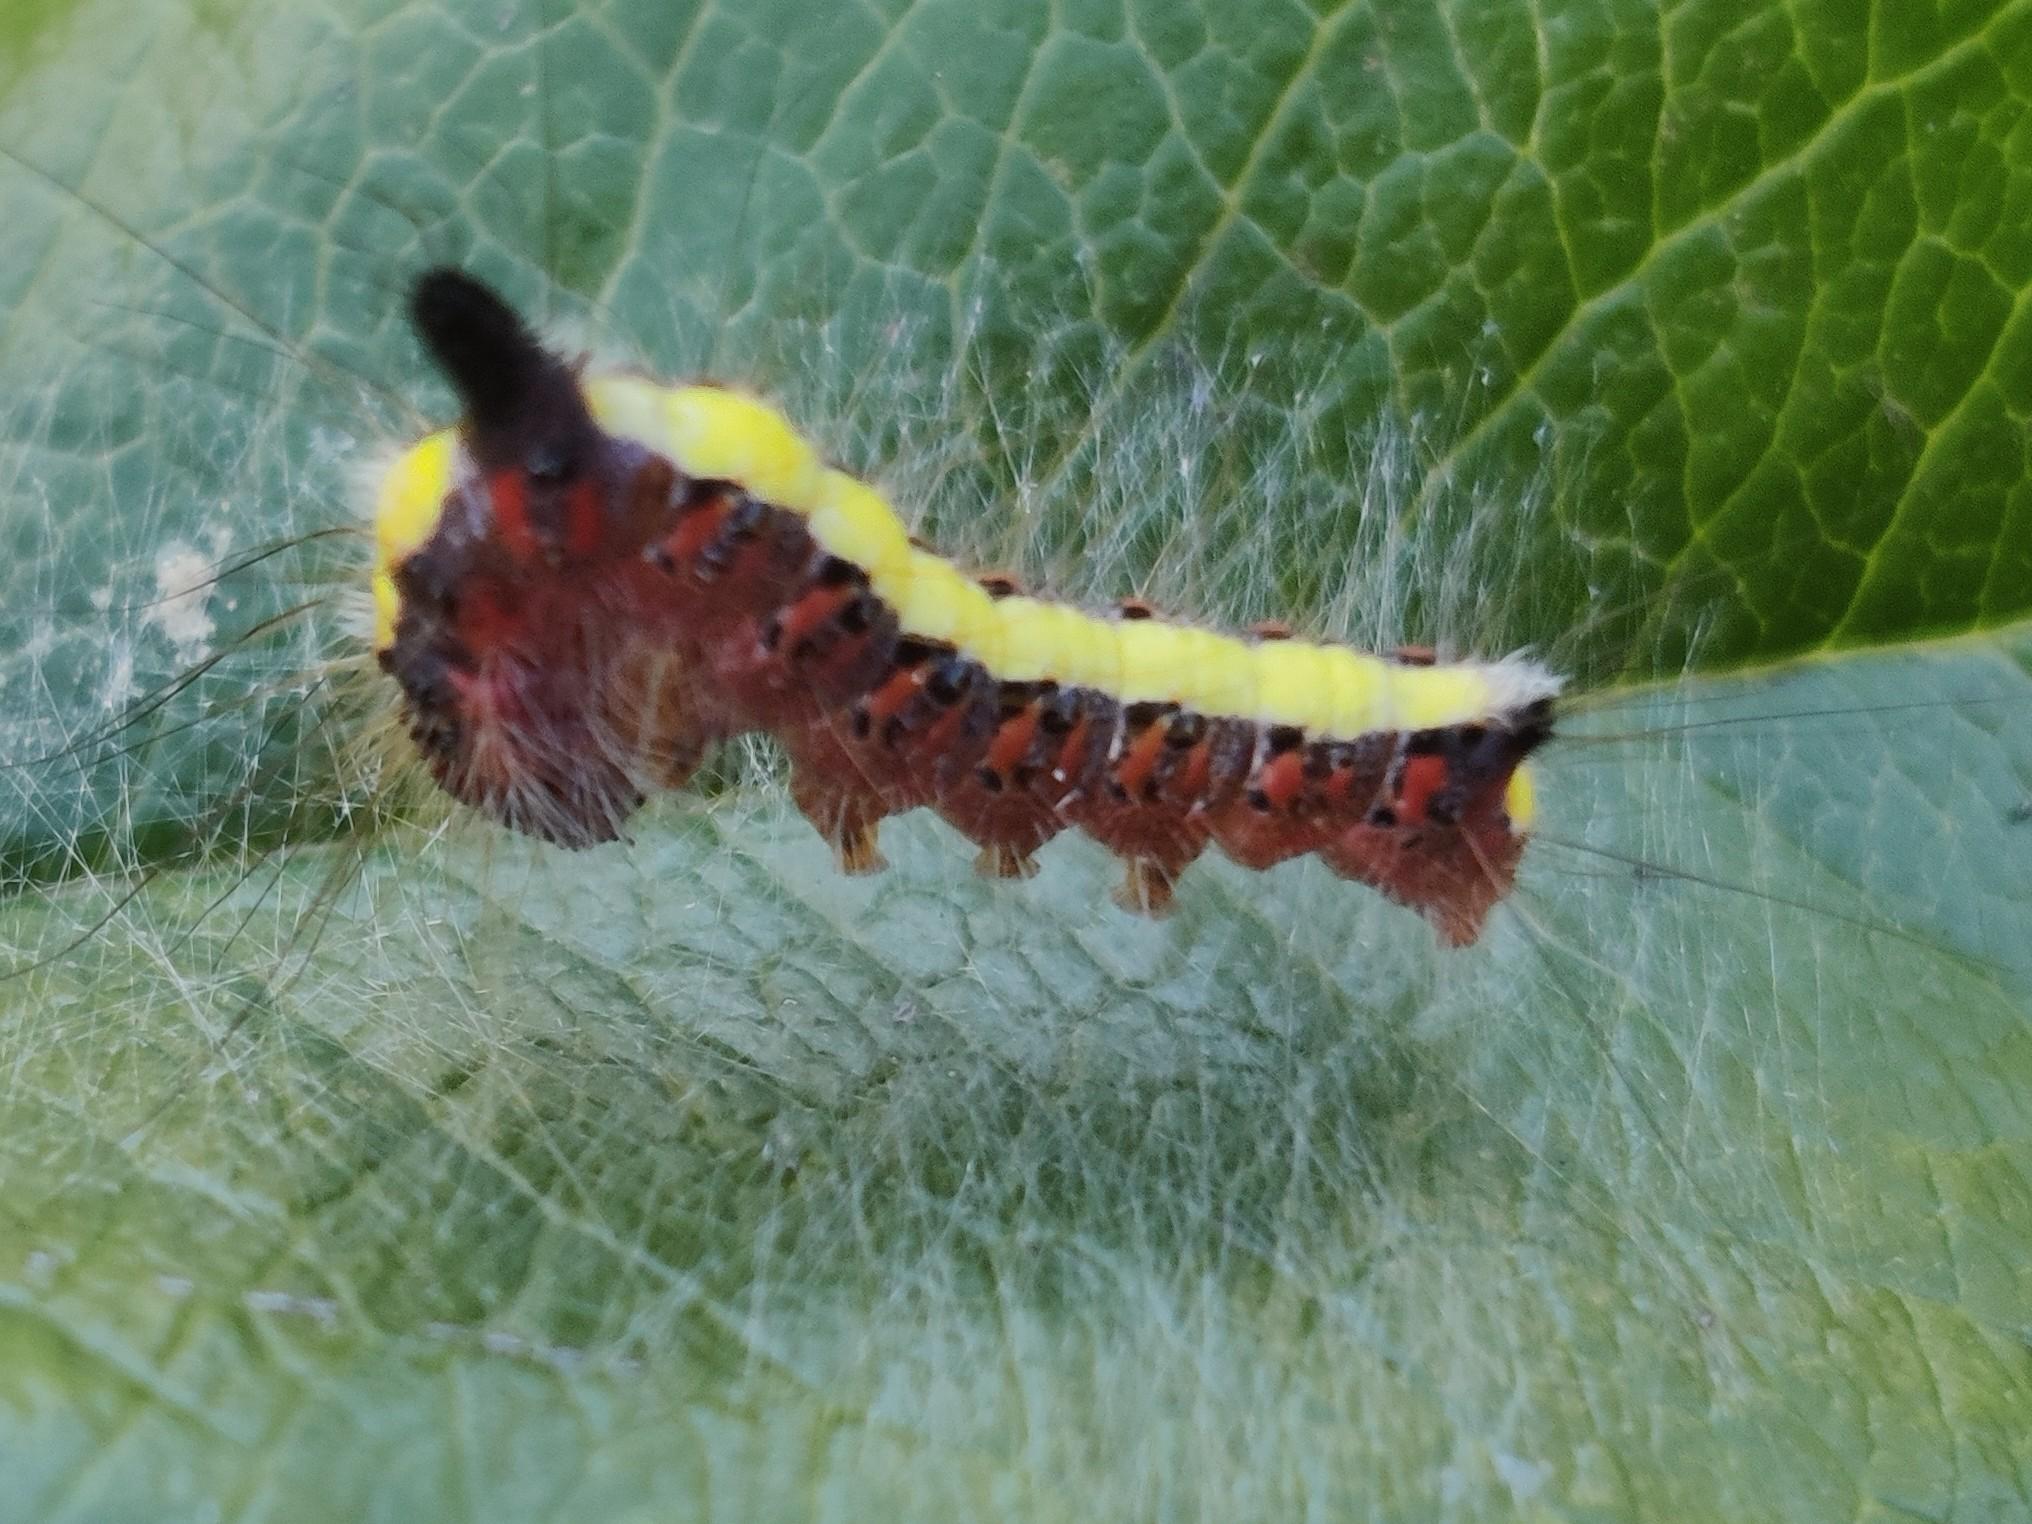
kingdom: Animalia
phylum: Arthropoda
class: Insecta
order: Lepidoptera
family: Noctuidae
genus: Acronicta
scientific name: Acronicta psi
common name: Psi-ugle
